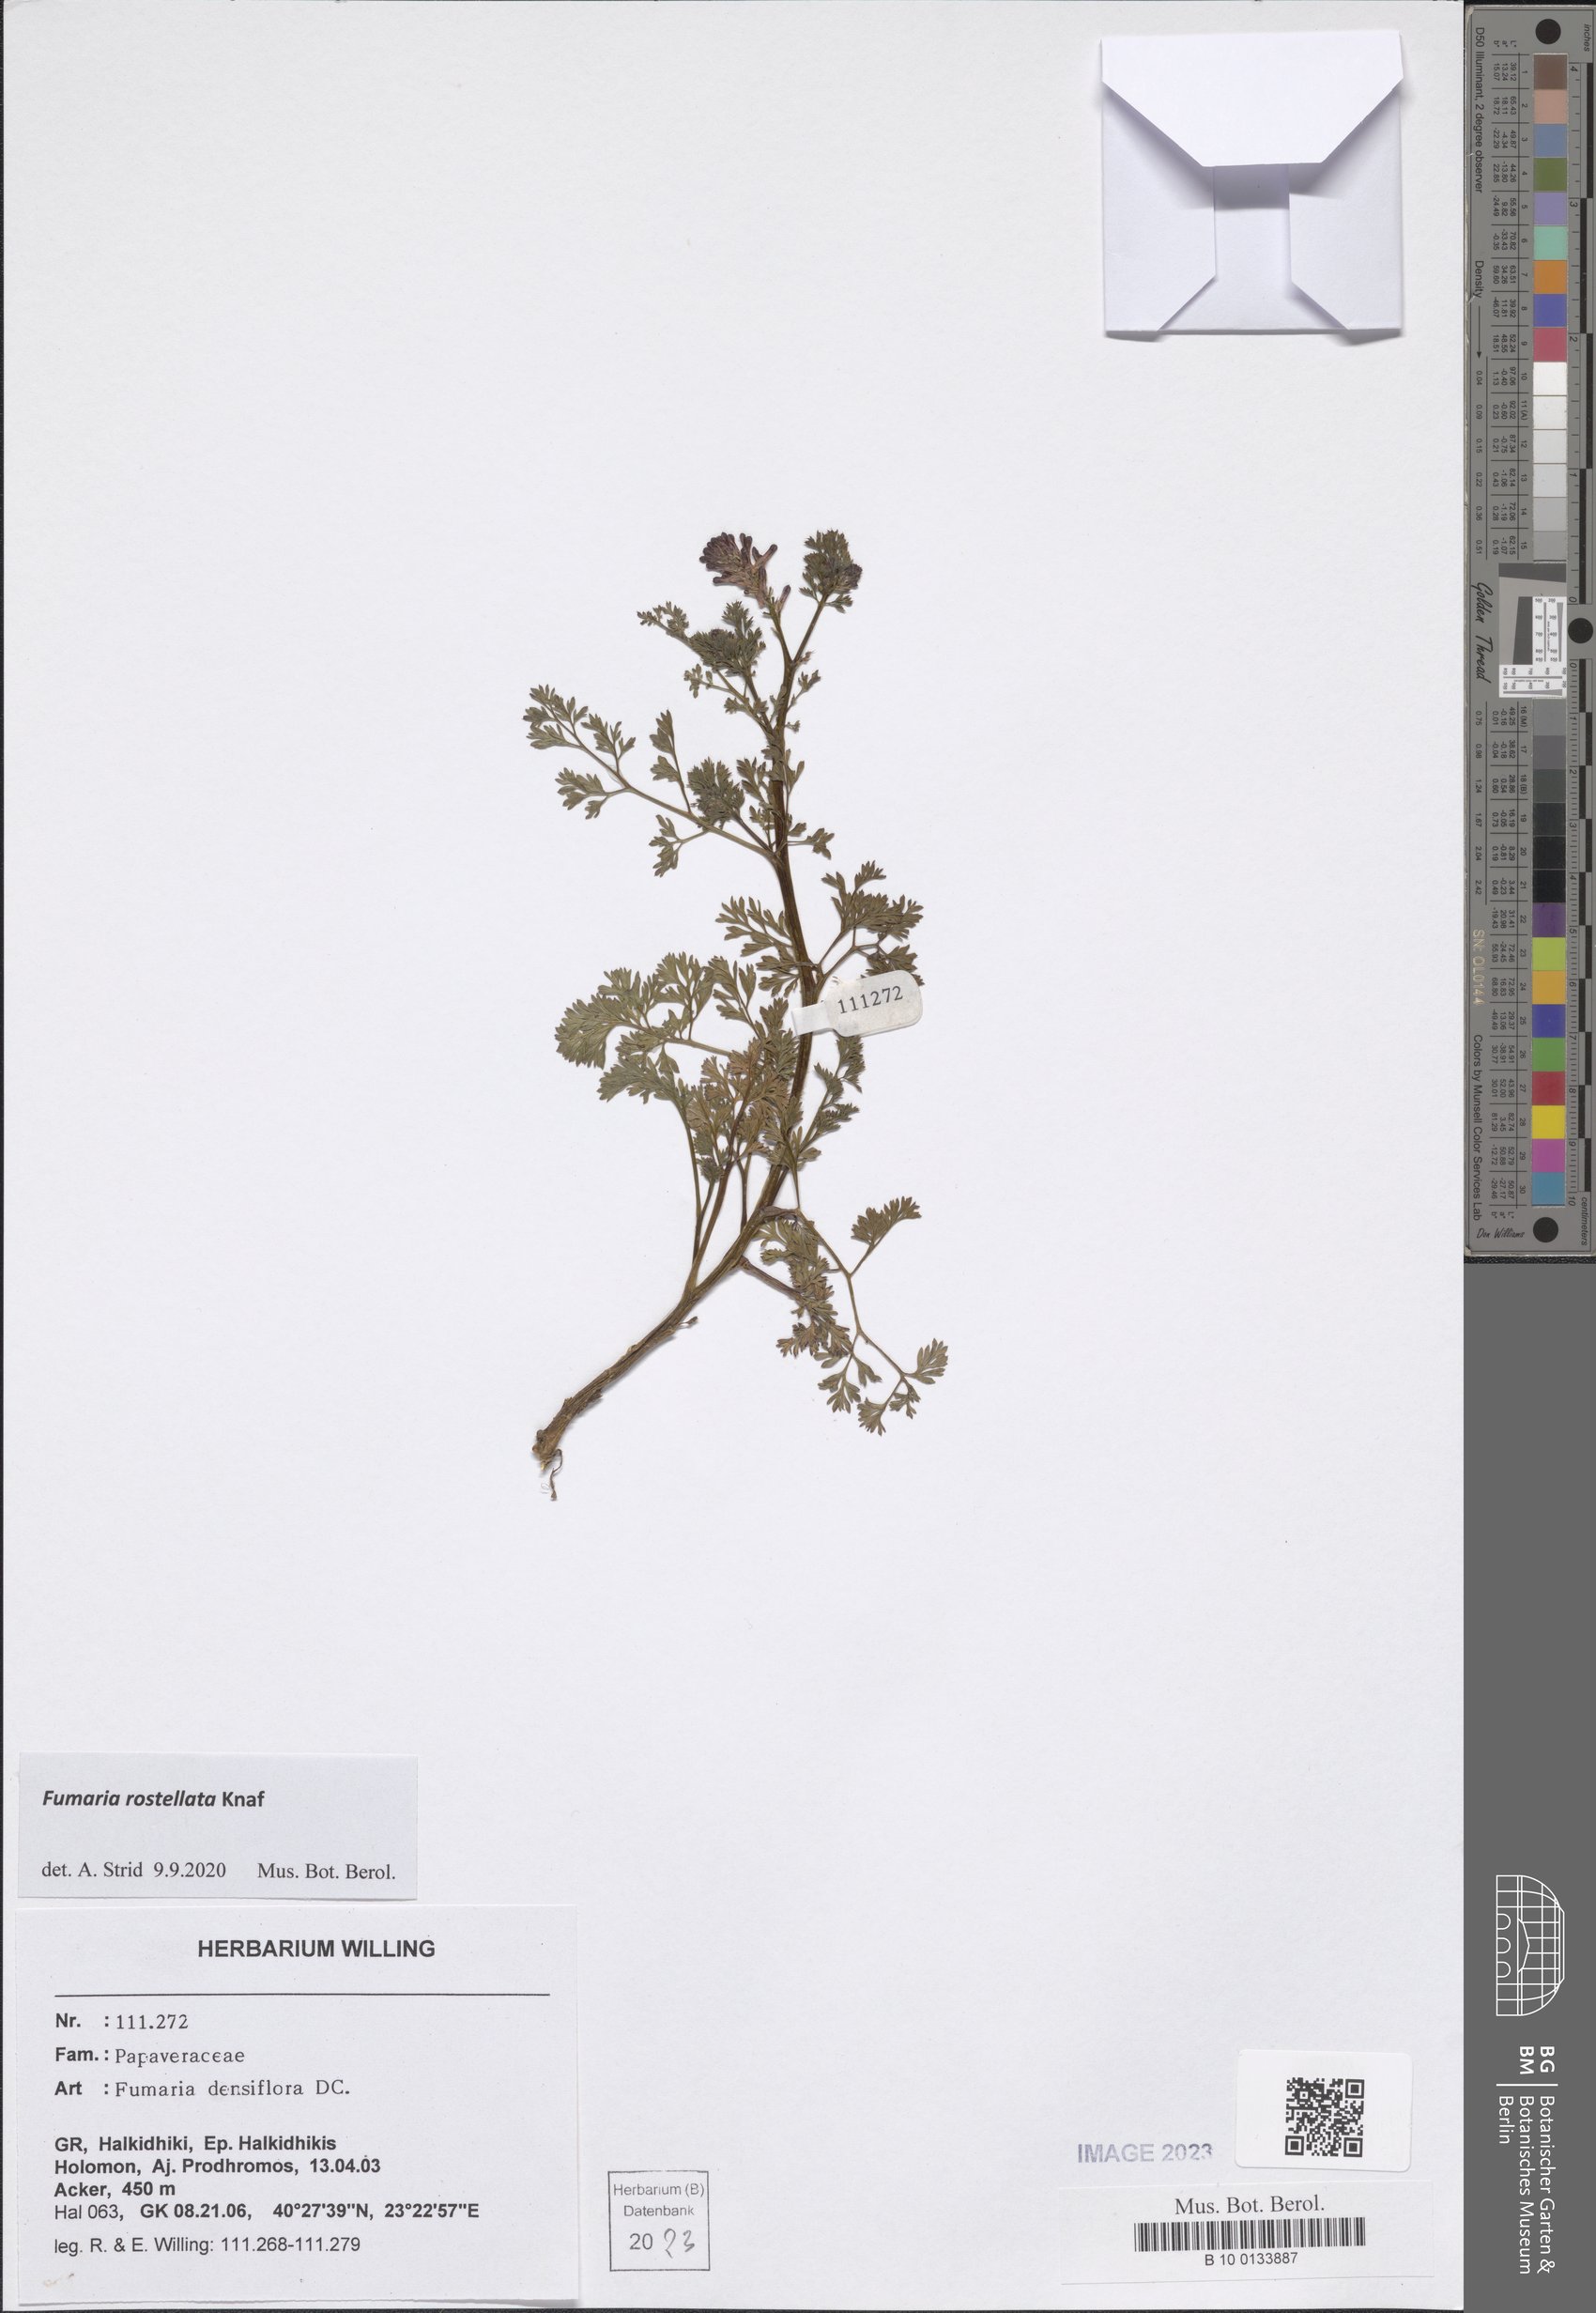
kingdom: Plantae
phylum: Tracheophyta
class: Magnoliopsida
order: Ranunculales
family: Papaveraceae
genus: Fumaria
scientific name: Fumaria rostellata
